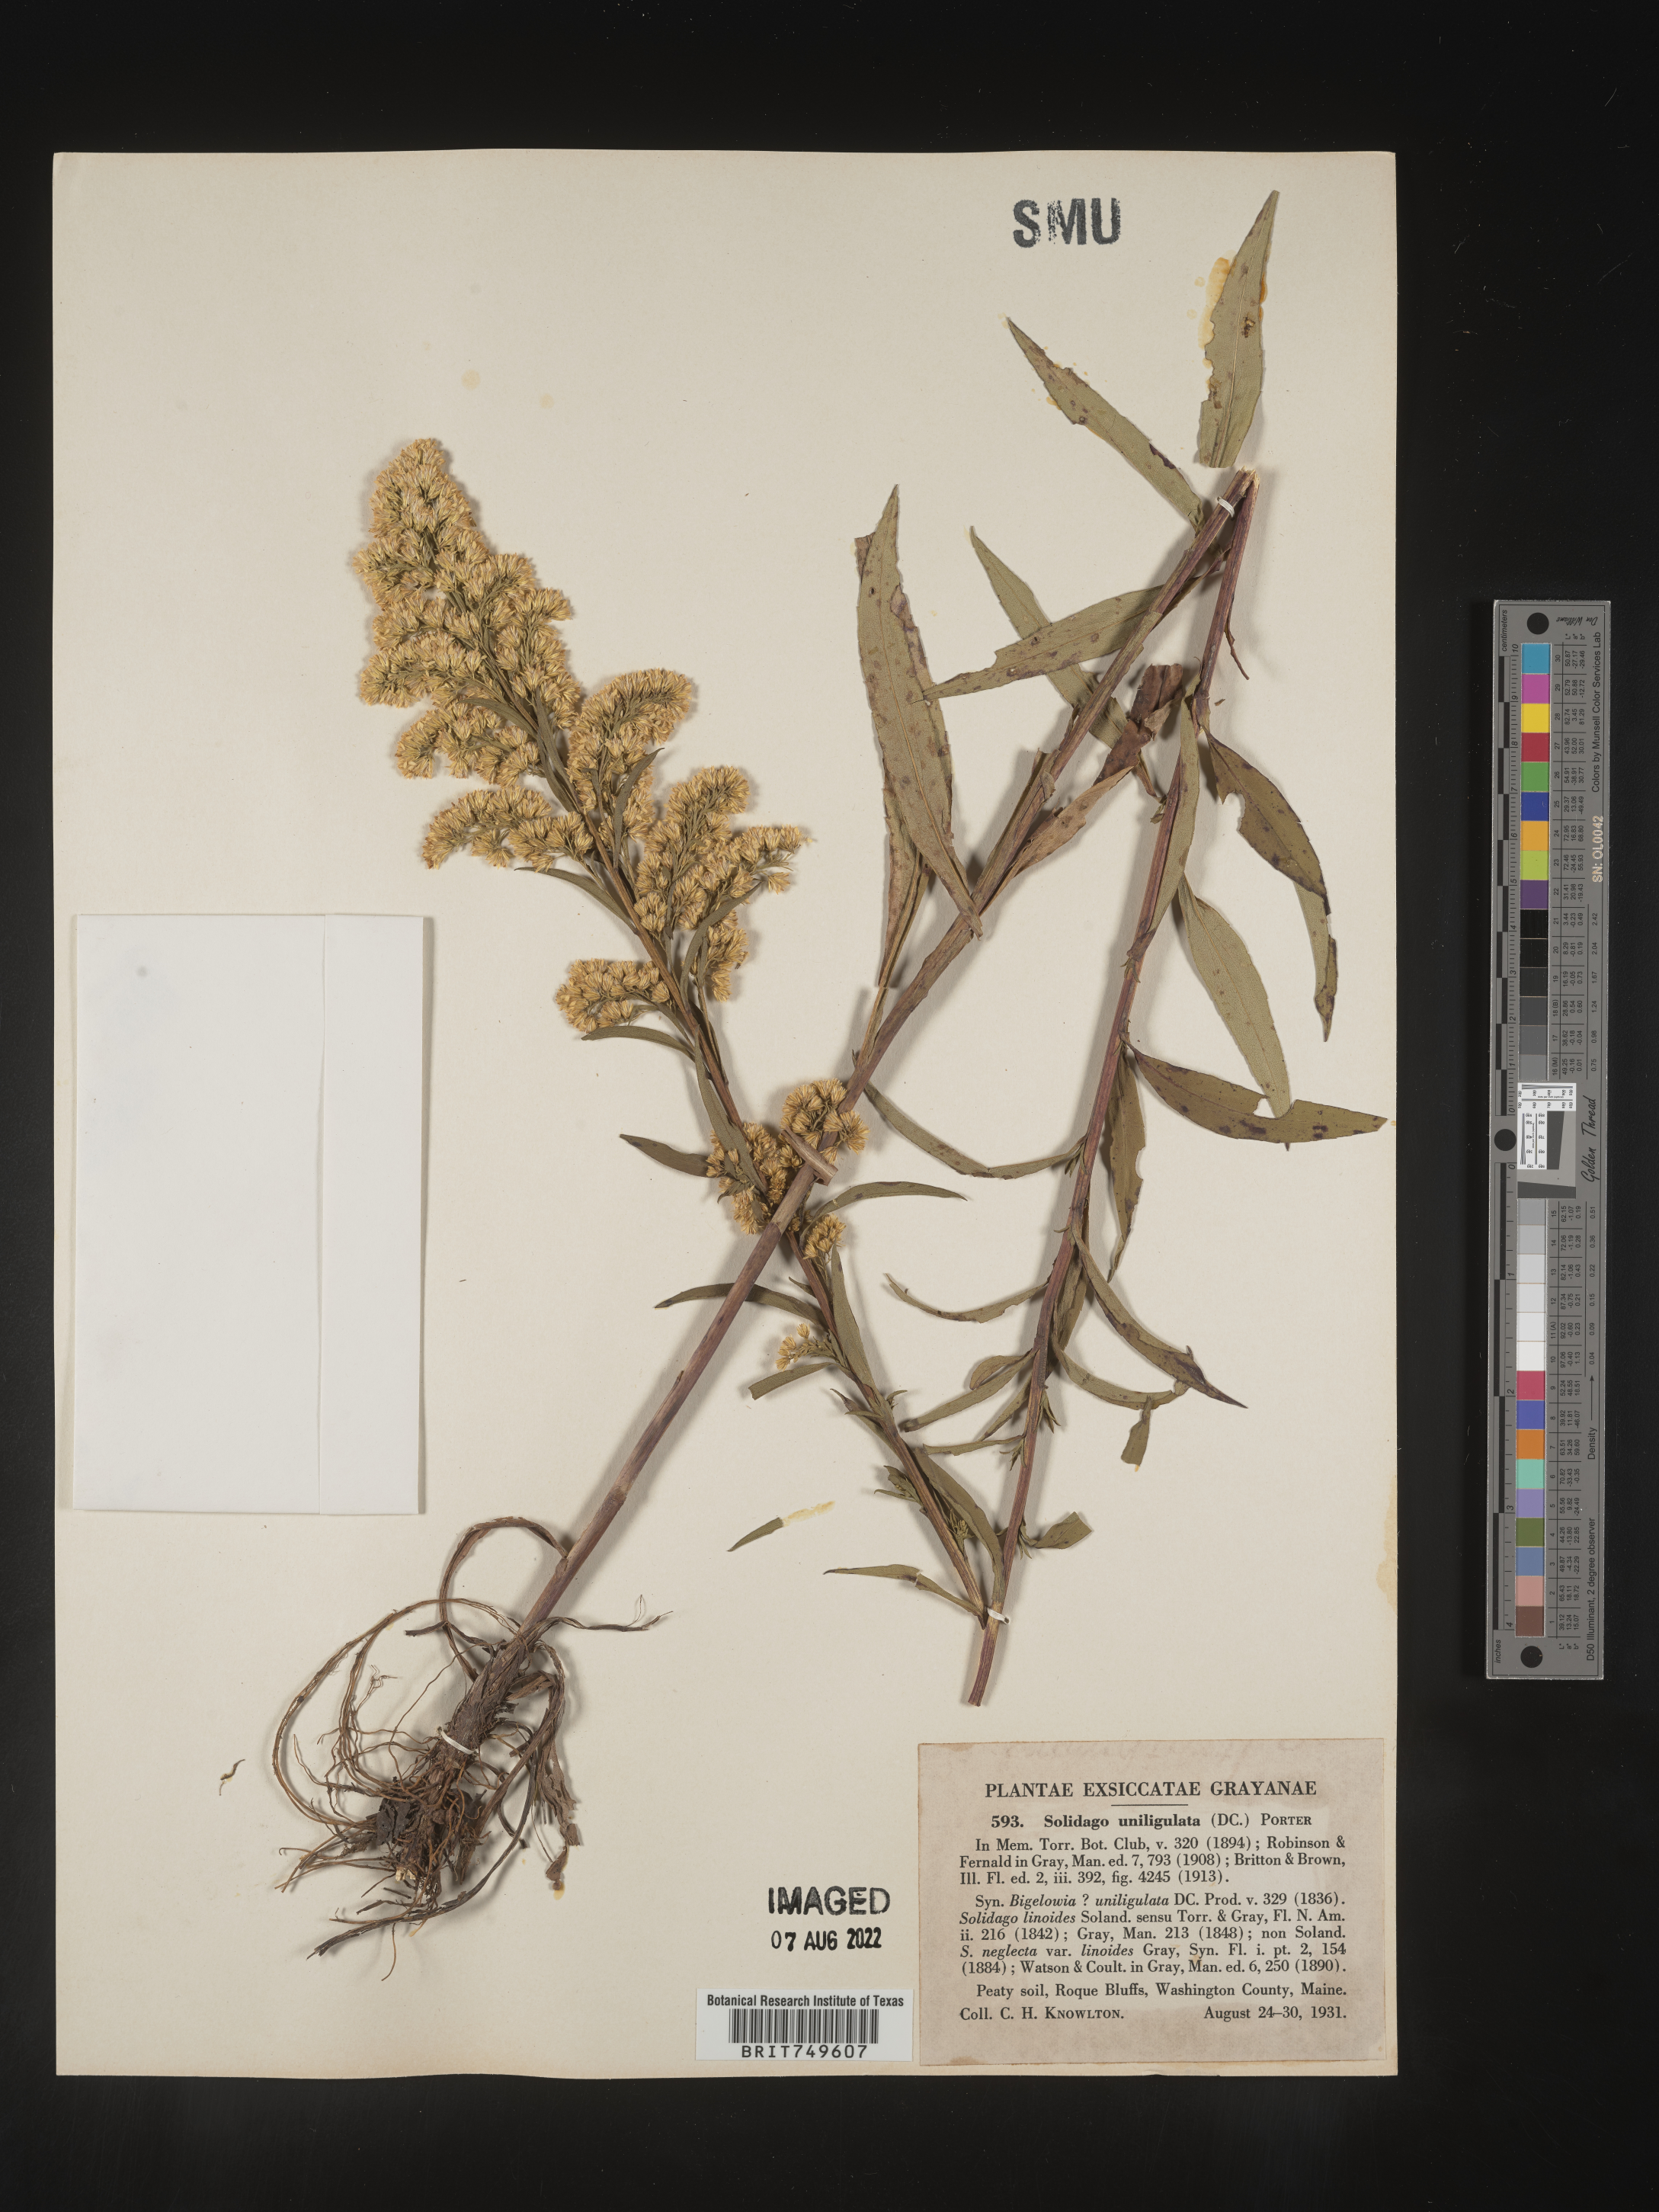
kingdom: Plantae
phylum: Tracheophyta
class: Magnoliopsida
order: Asterales
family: Asteraceae
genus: Solidago
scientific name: Solidago uliginosa
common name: Bog goldenrod
